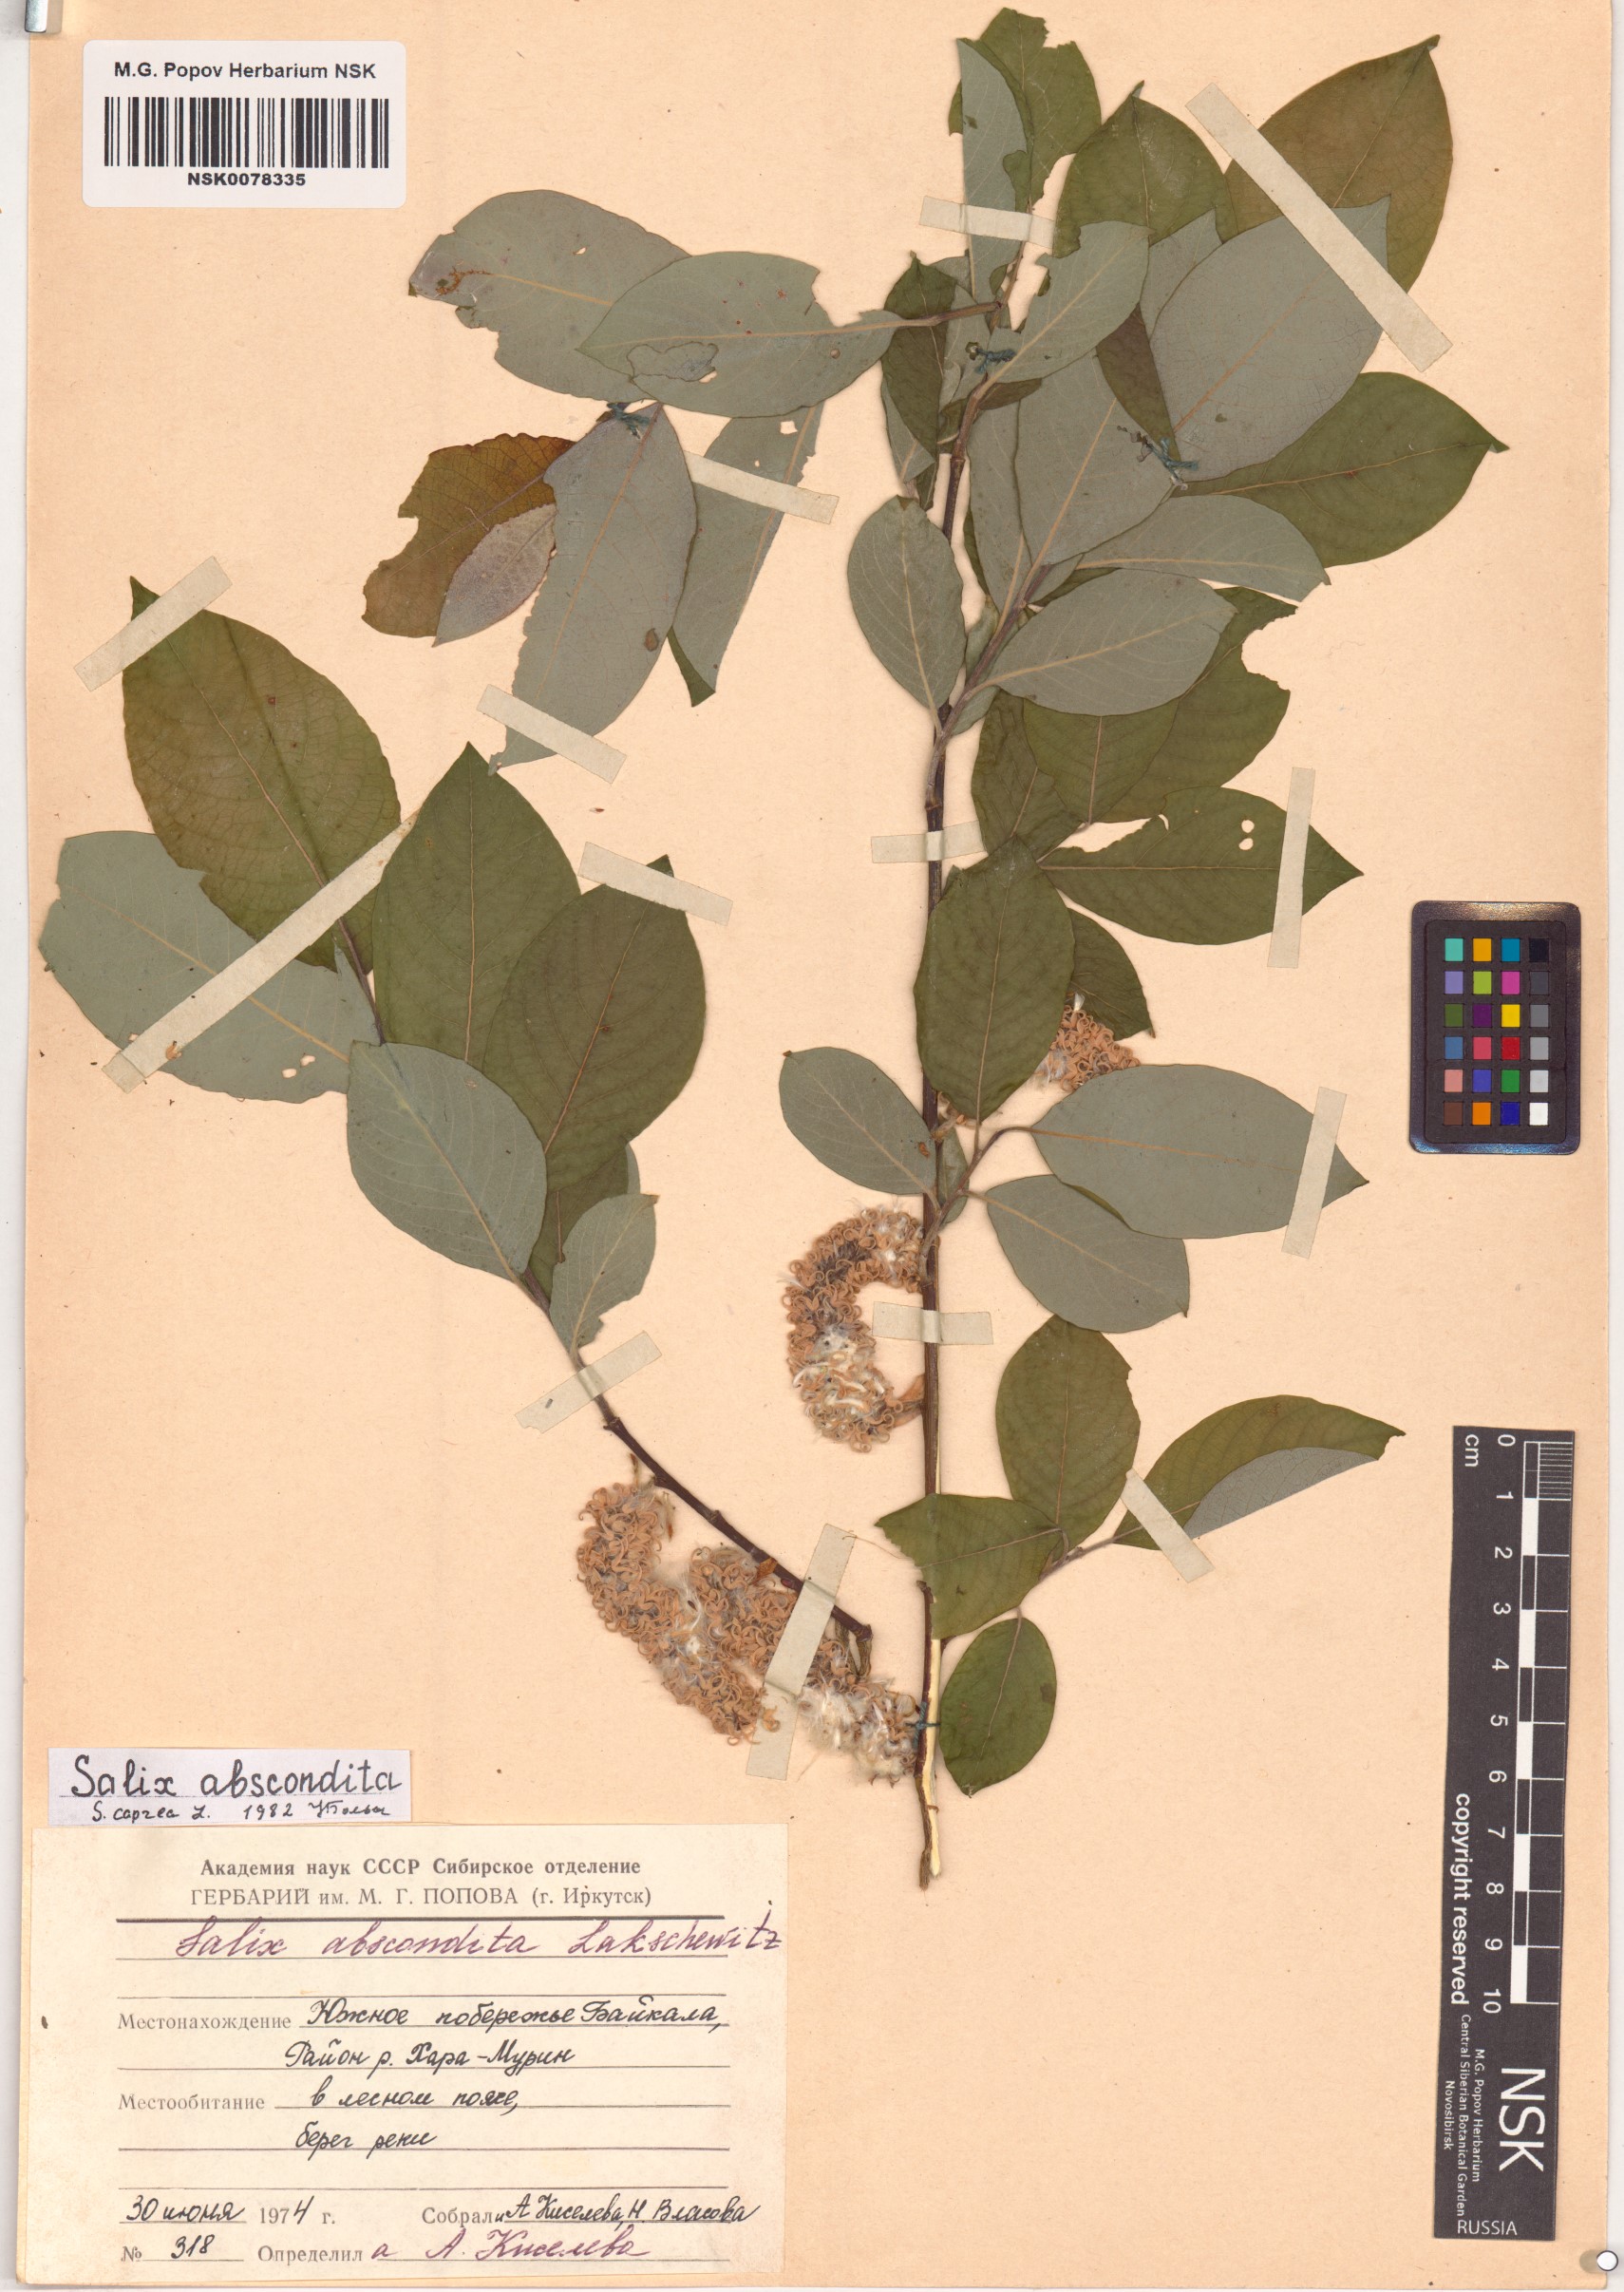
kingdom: Plantae
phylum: Tracheophyta
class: Magnoliopsida
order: Malpighiales
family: Salicaceae
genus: Salix
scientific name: Salix caprea
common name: Goat willow
